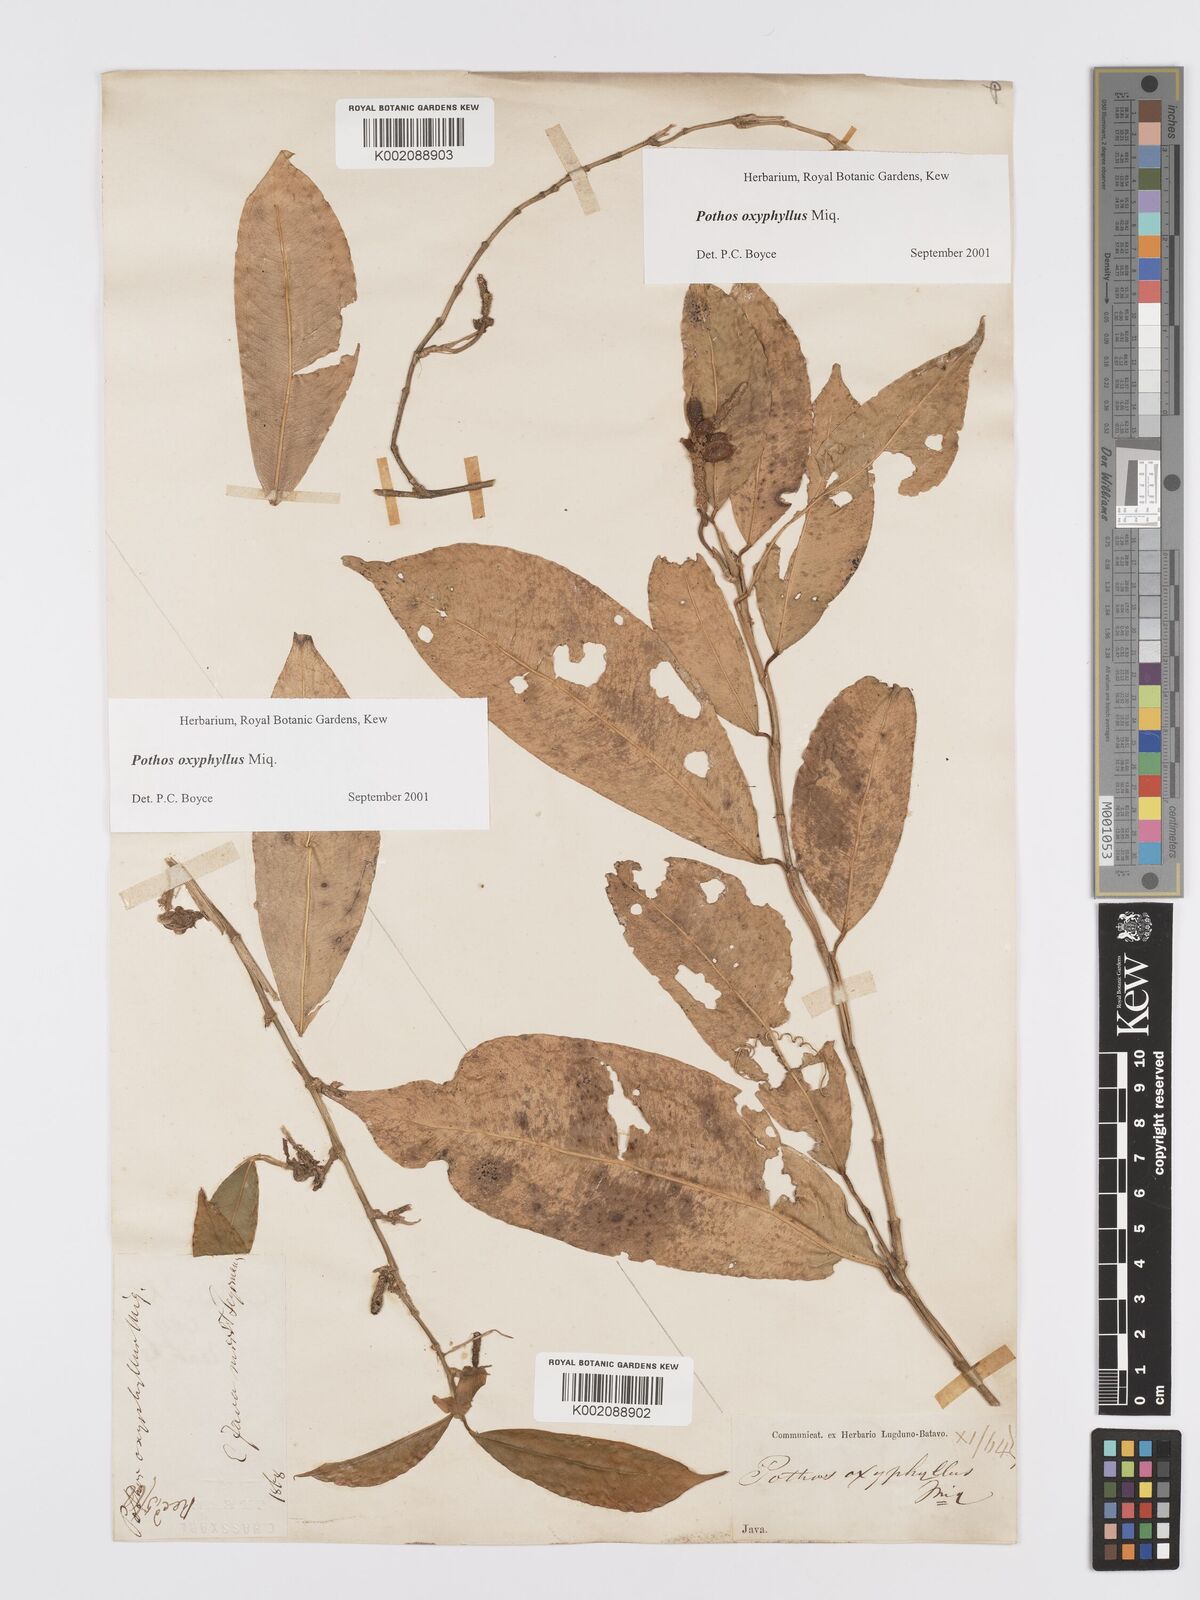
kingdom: Plantae
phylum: Tracheophyta
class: Liliopsida
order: Alismatales
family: Araceae
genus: Pothos
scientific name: Pothos oxyphyllus
